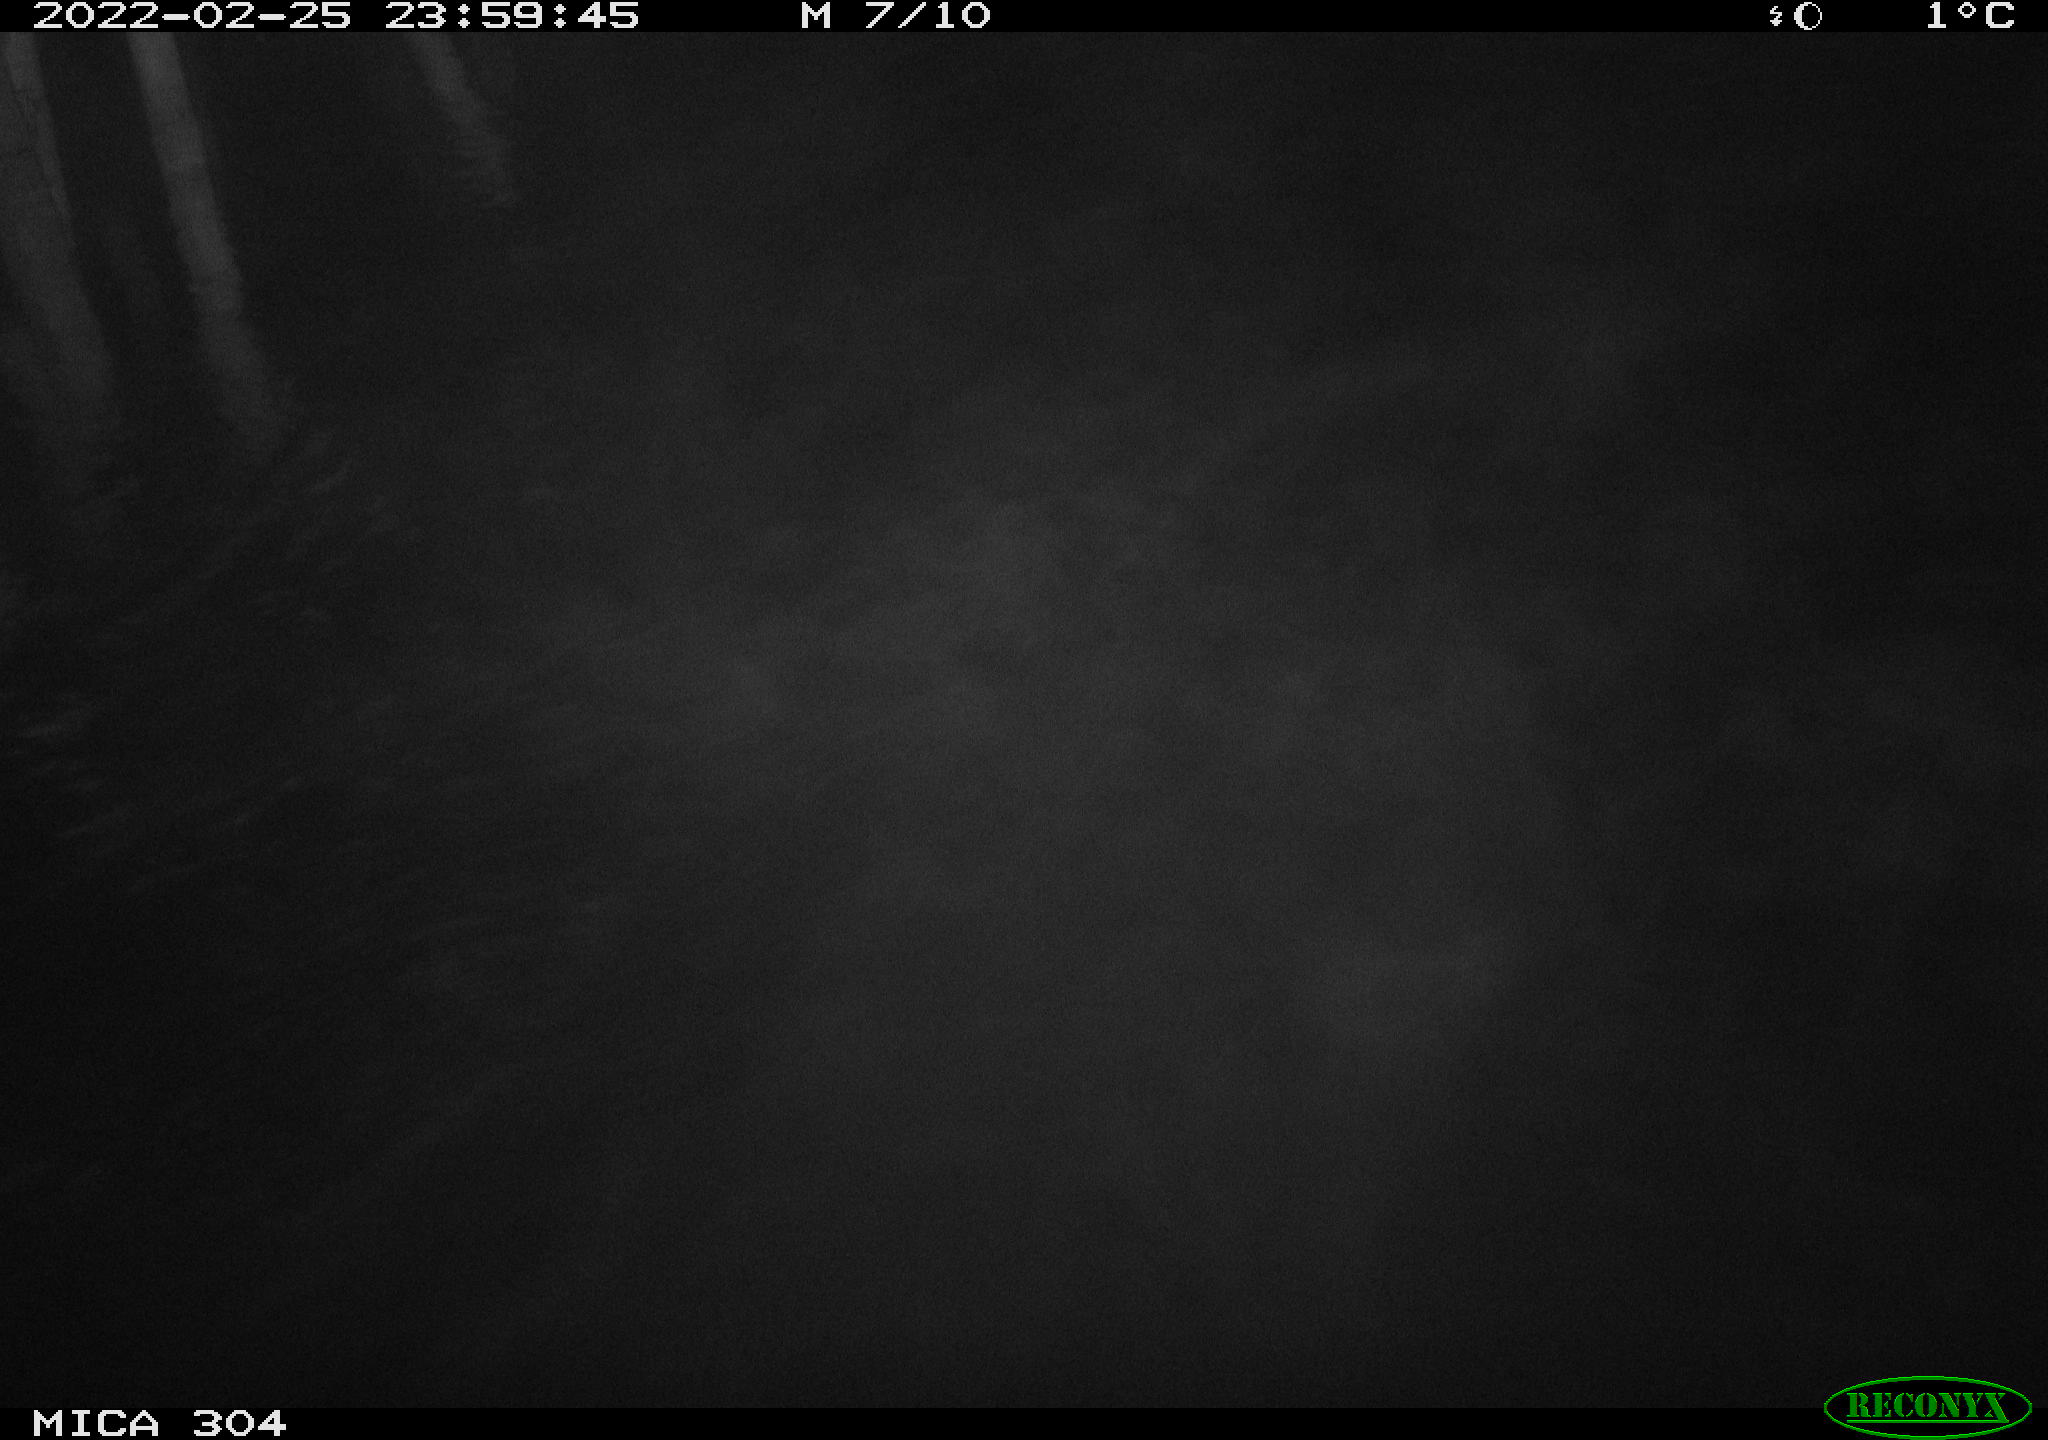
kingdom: Animalia
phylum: Chordata
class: Mammalia
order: Rodentia
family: Cricetidae
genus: Ondatra
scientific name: Ondatra zibethicus
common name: Muskrat
